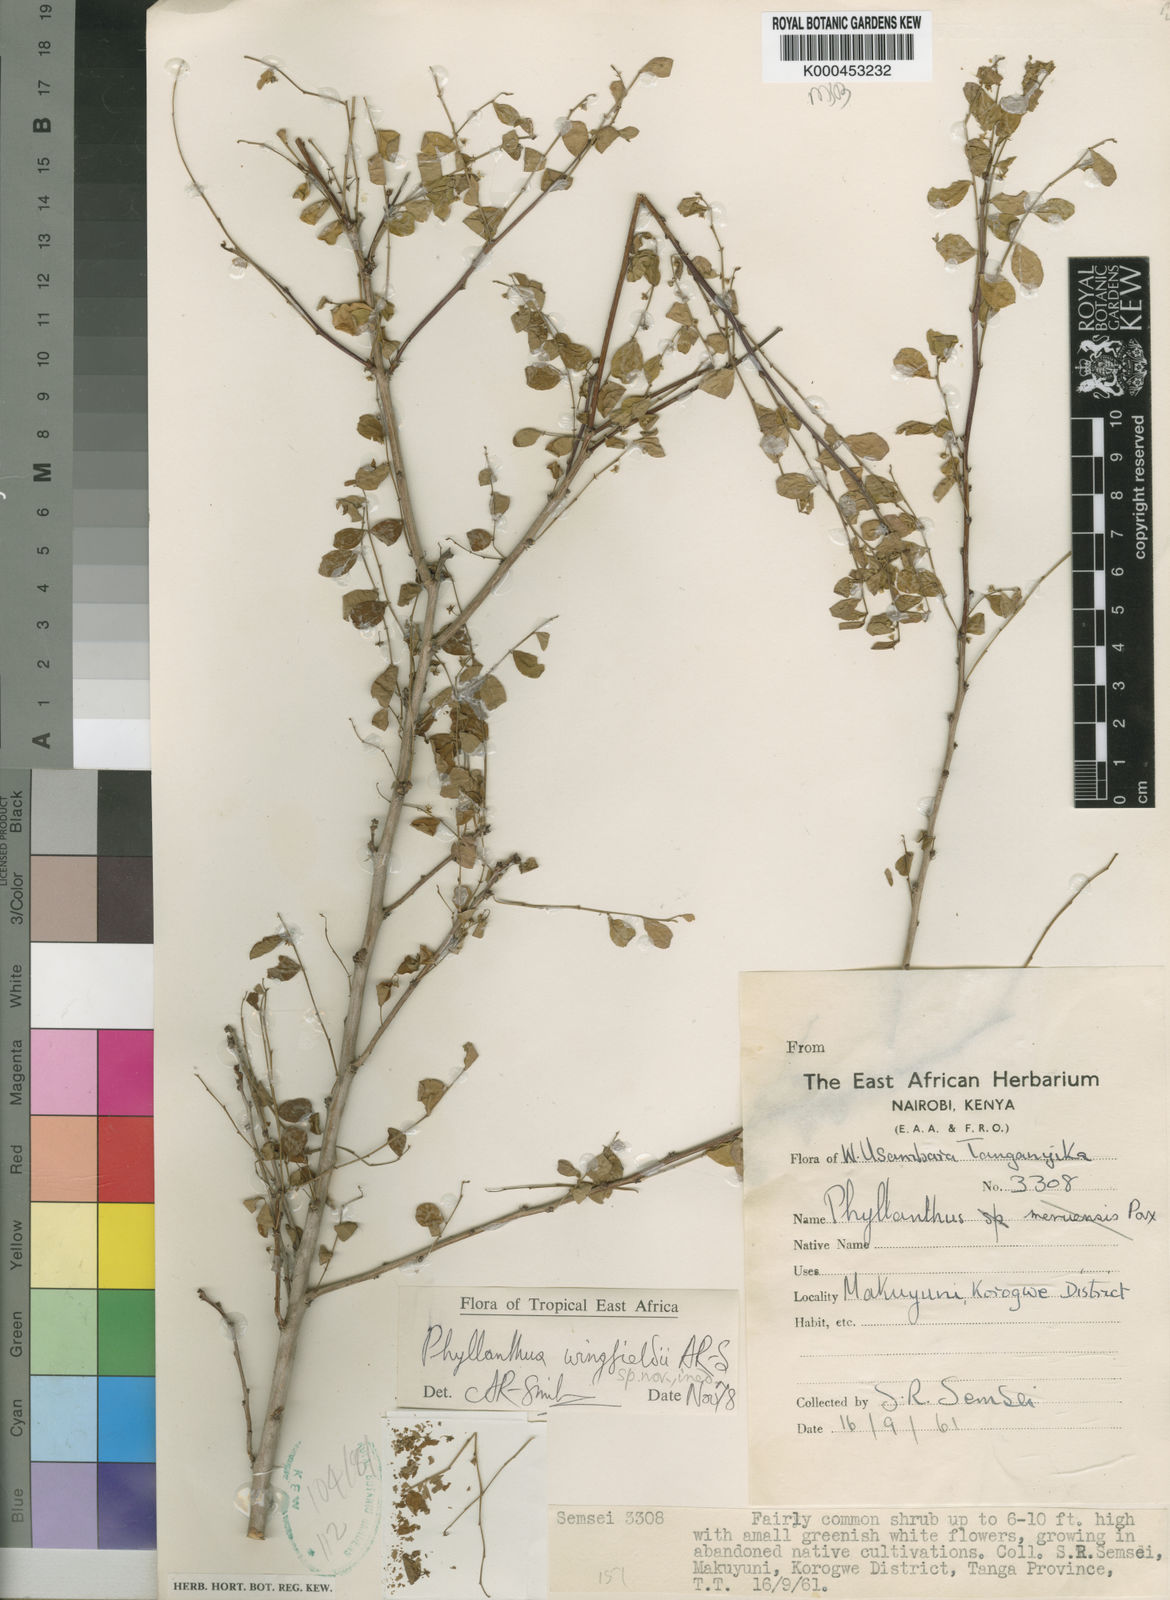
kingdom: Plantae
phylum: Tracheophyta
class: Magnoliopsida
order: Malpighiales
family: Phyllanthaceae
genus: Phyllanthus
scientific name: Phyllanthus
